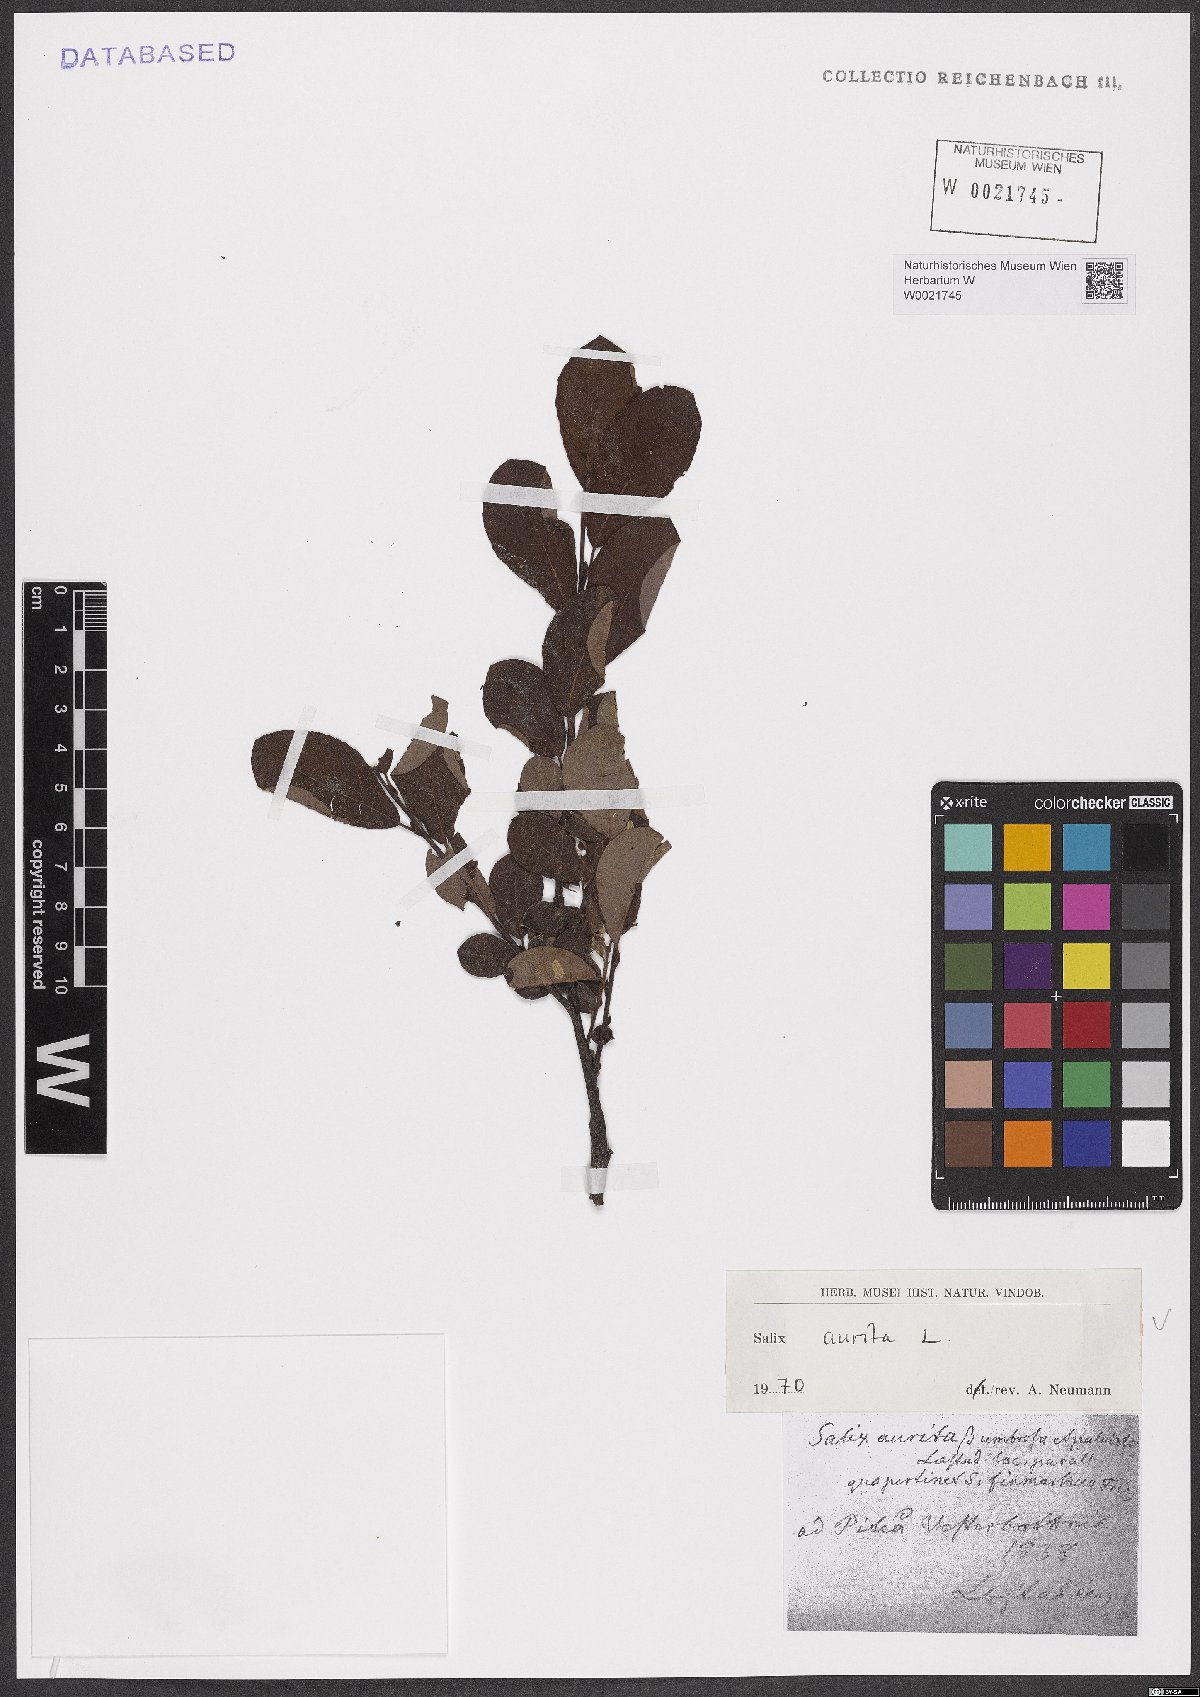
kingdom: Plantae
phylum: Tracheophyta
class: Magnoliopsida
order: Malpighiales
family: Salicaceae
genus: Salix
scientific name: Salix aurita
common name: Eared willow
